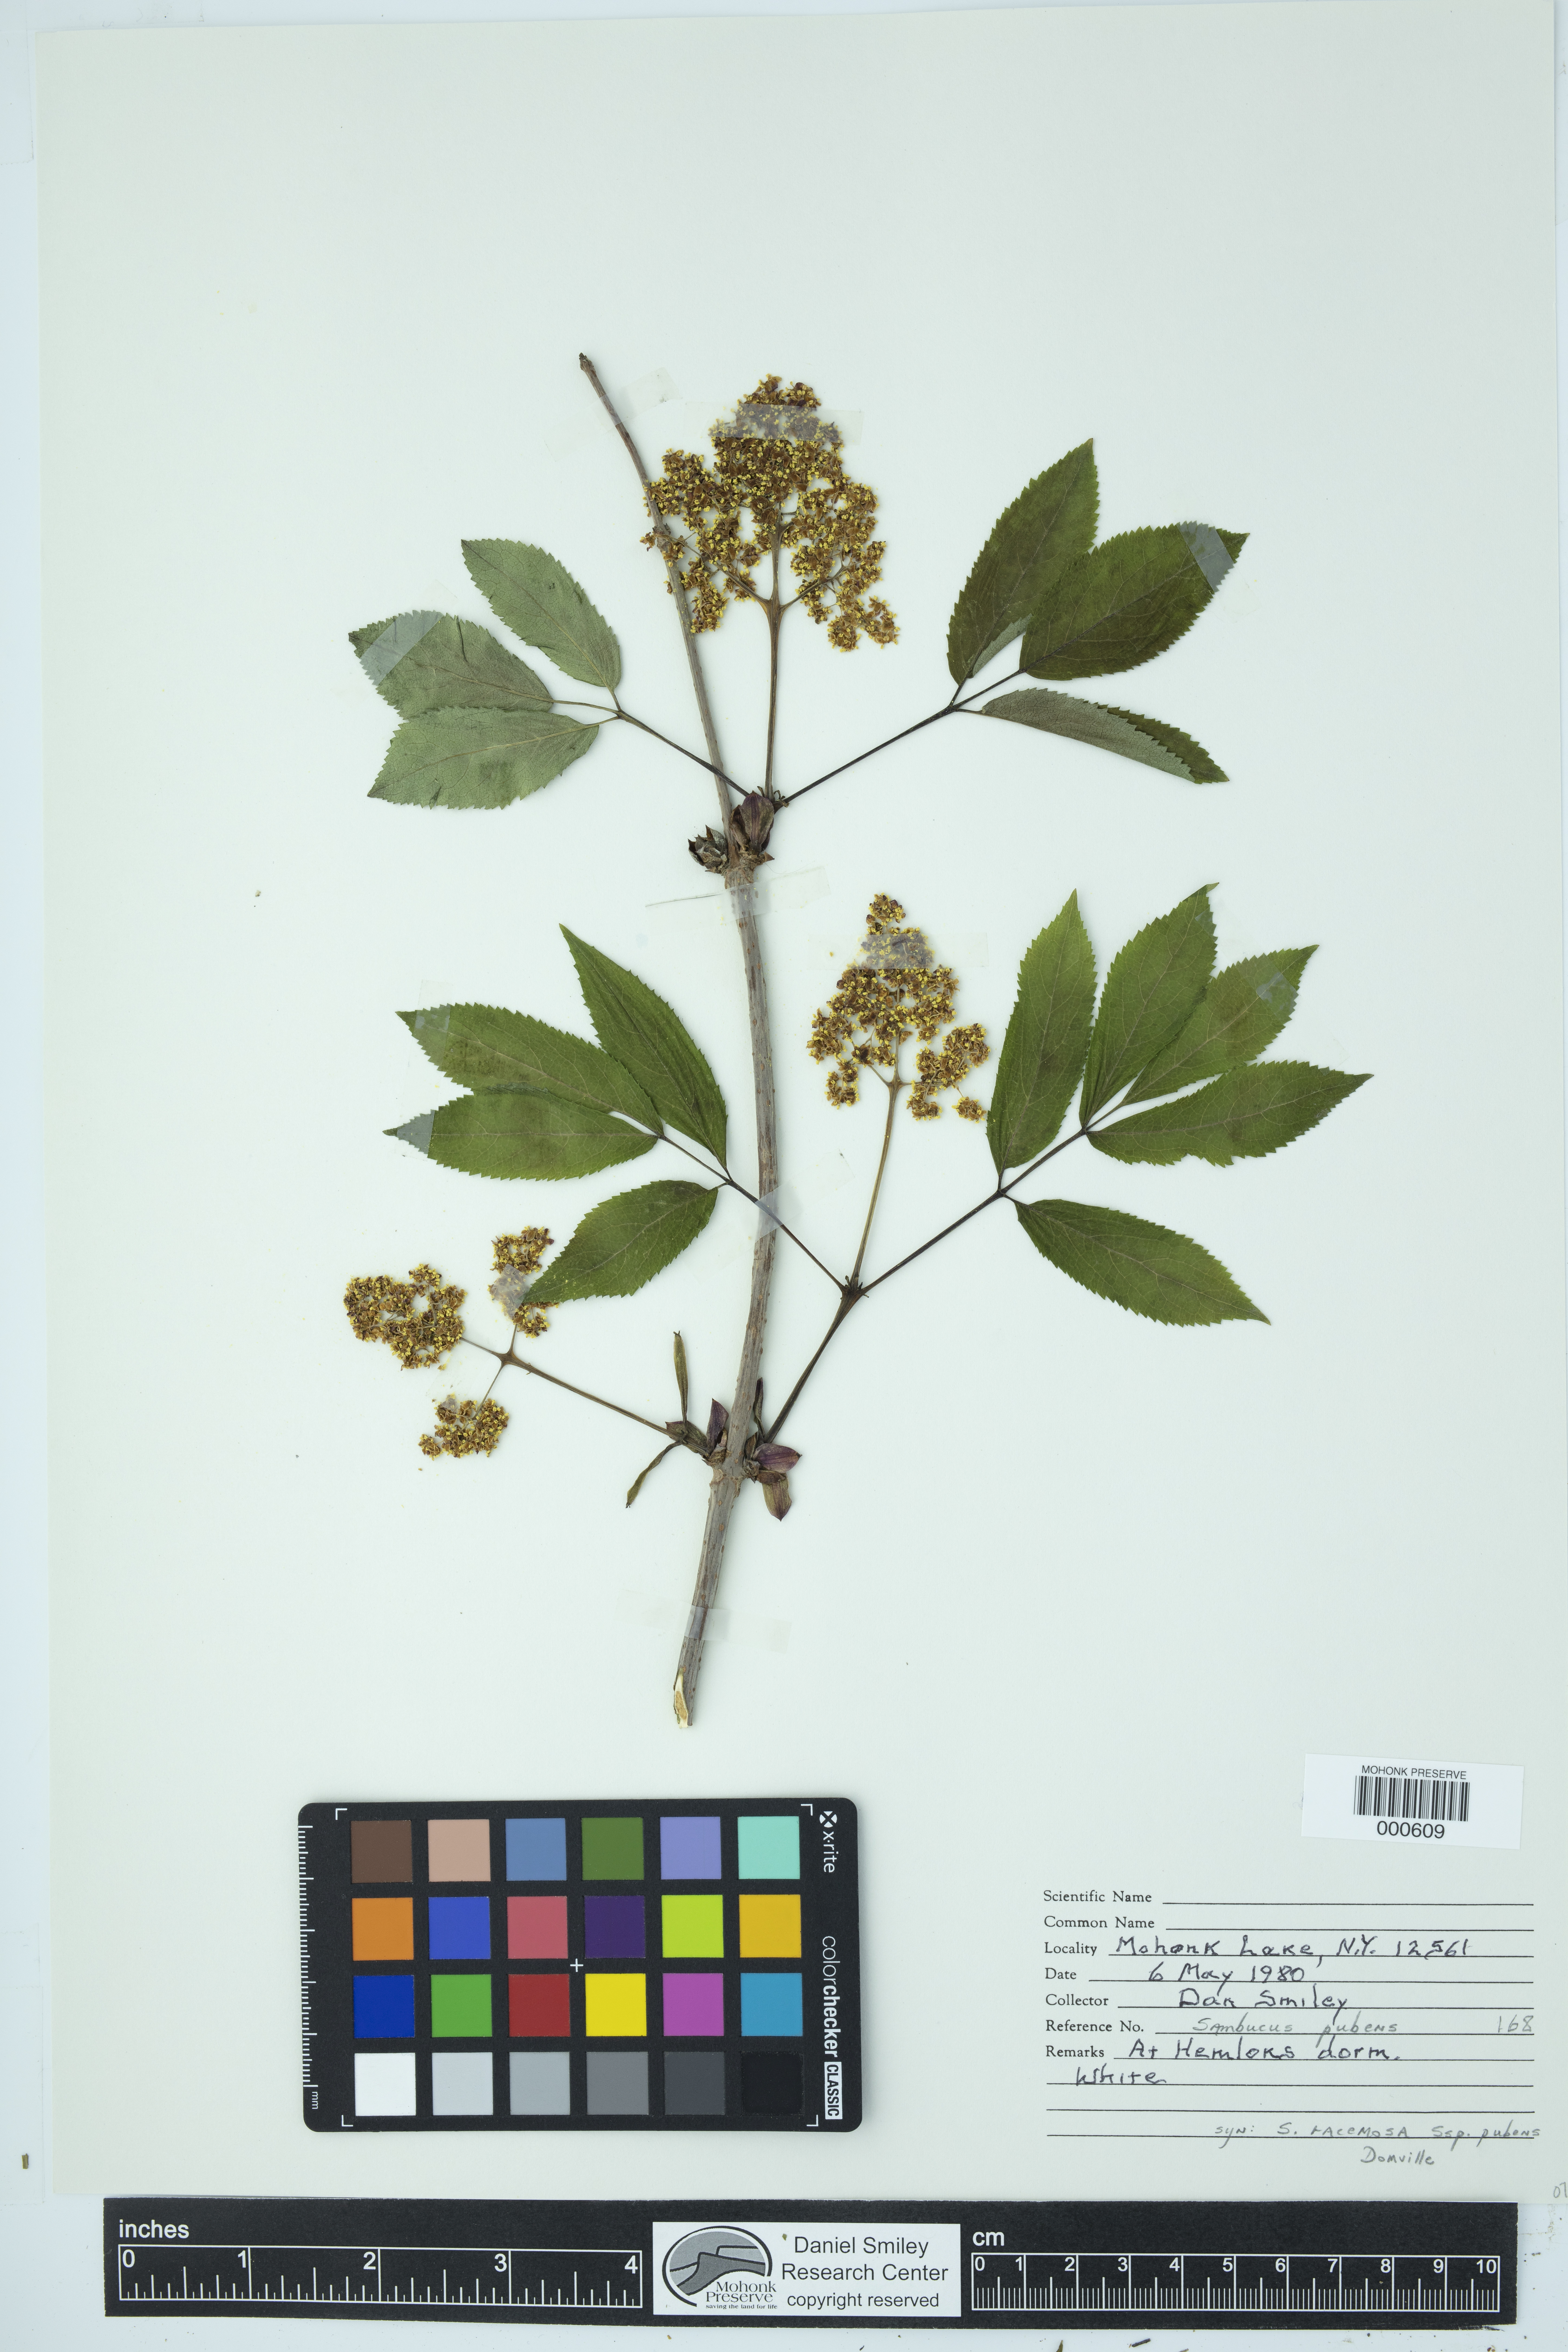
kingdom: Plantae
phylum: Tracheophyta
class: Magnoliopsida
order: Dipsacales
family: Viburnaceae
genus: Sambucus
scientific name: Sambucus racemosa
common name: Red-berried elder
